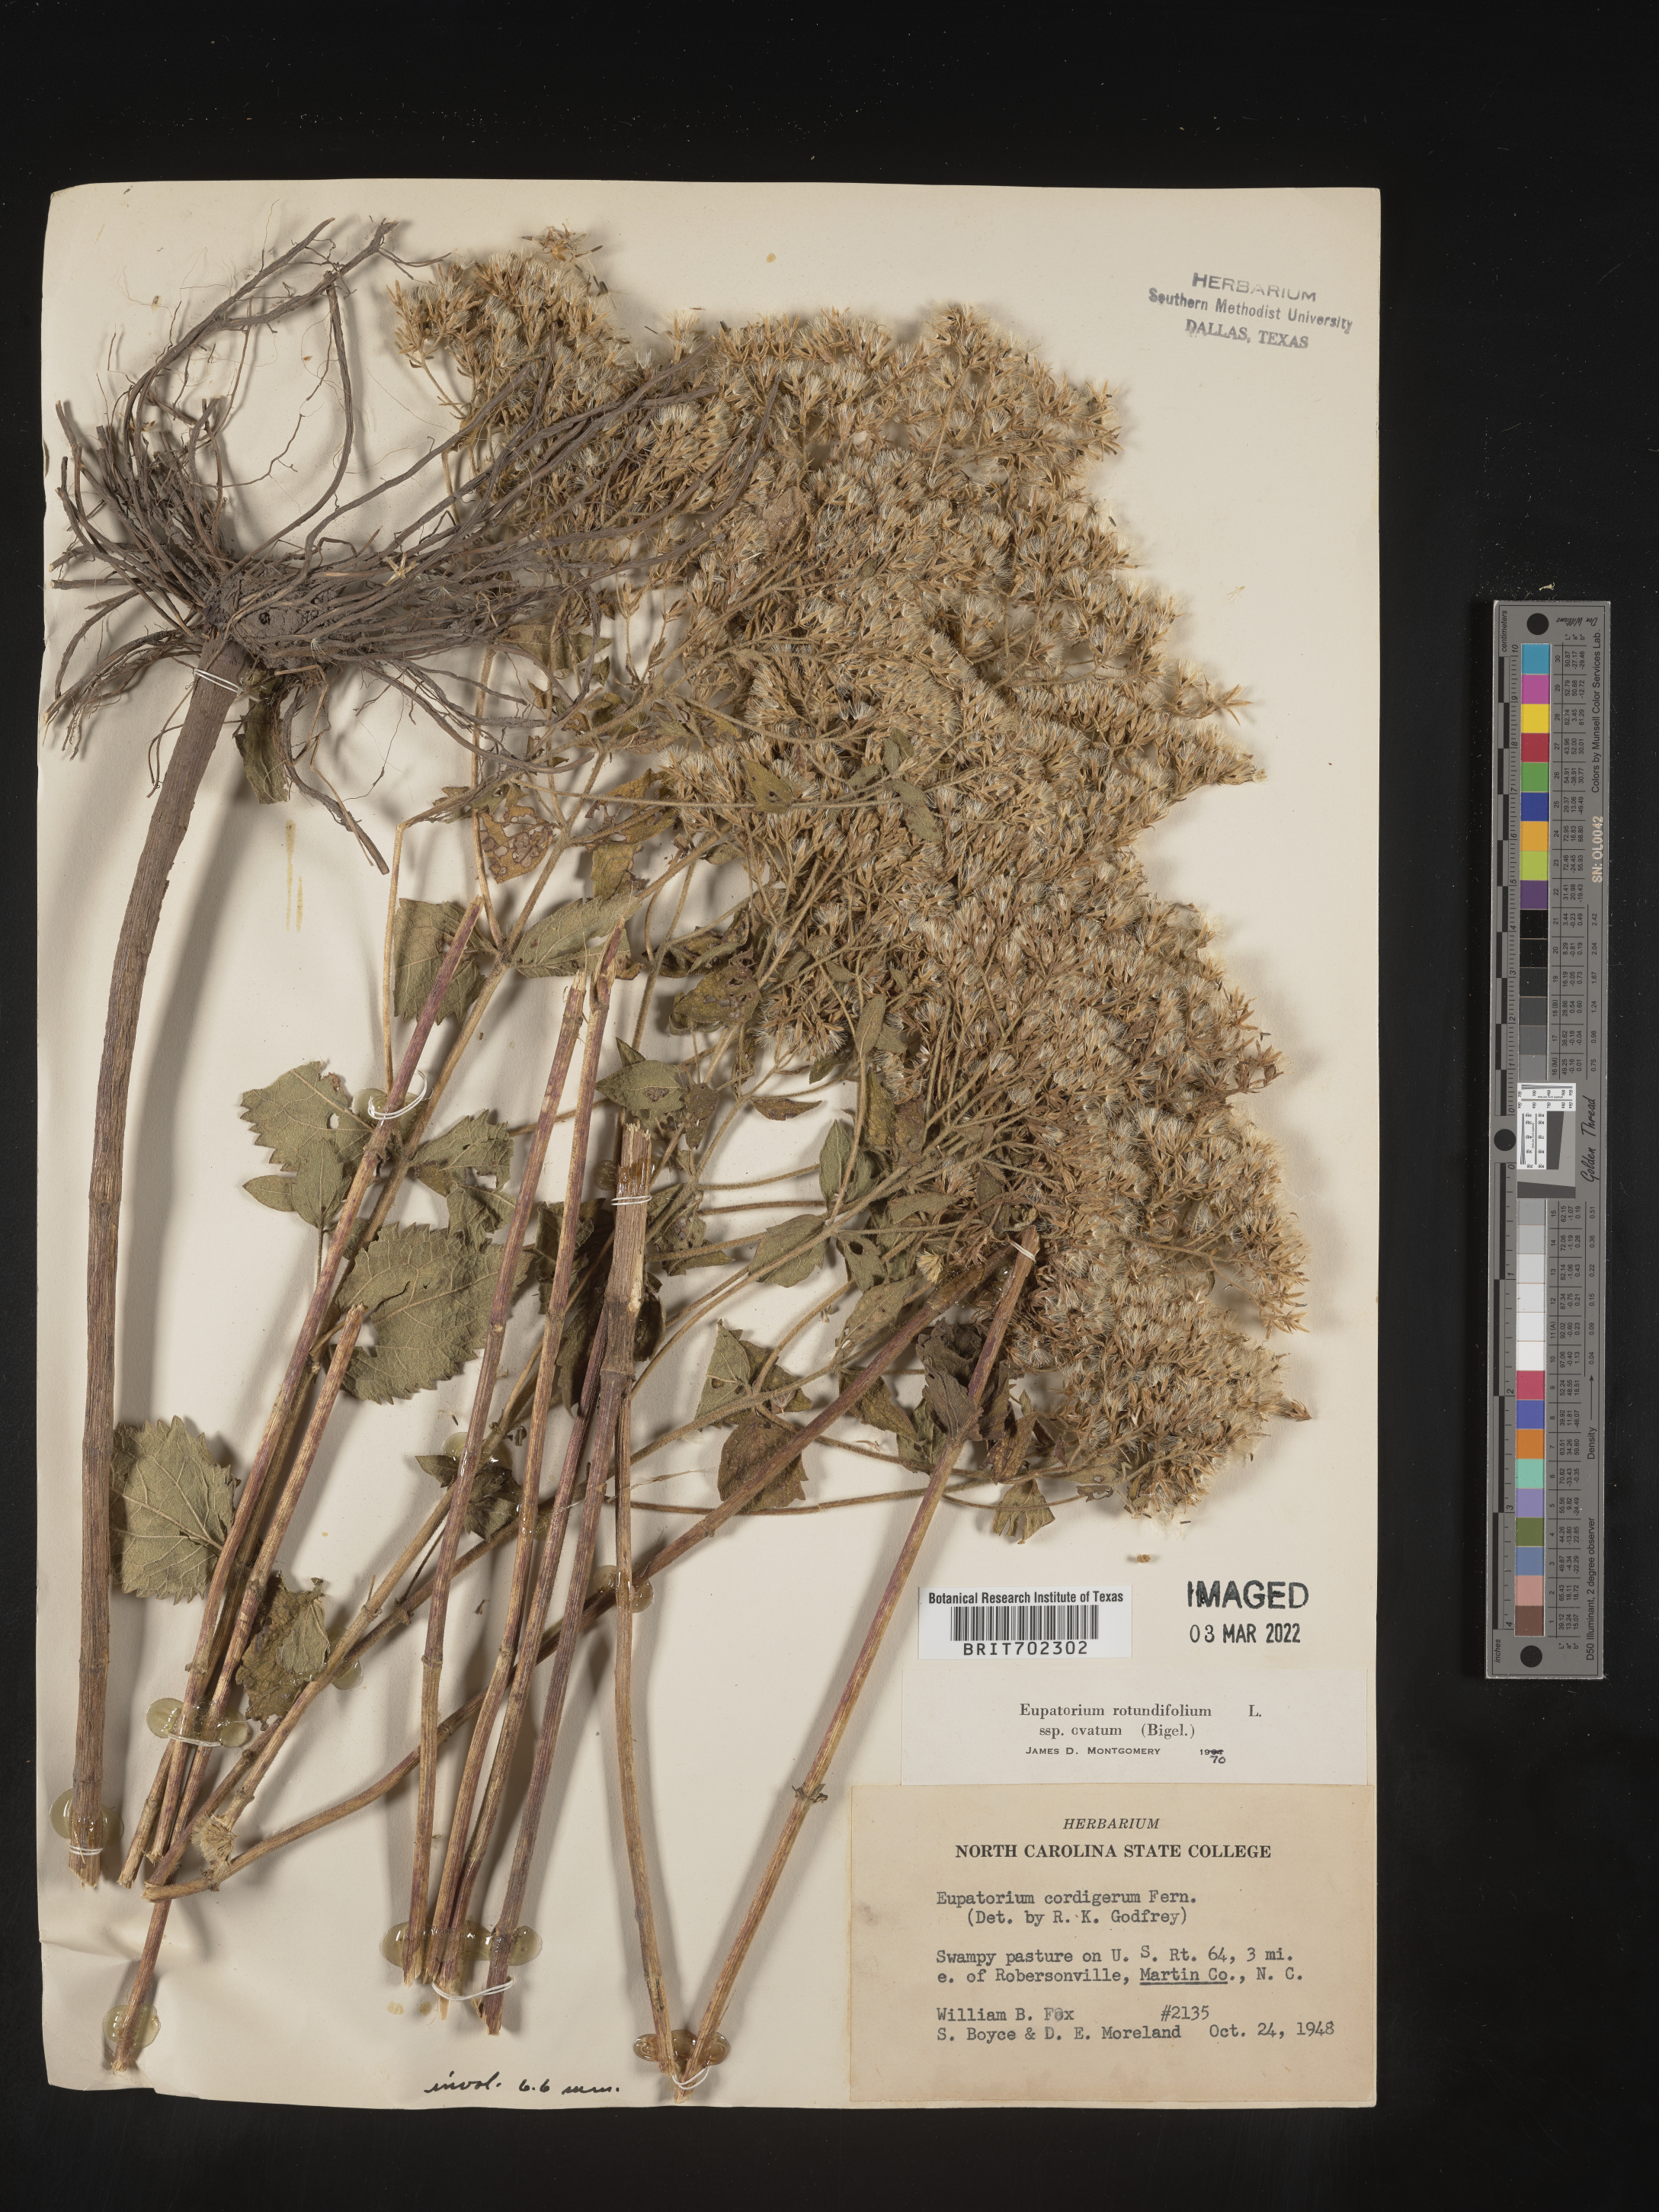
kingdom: Plantae
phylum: Tracheophyta
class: Magnoliopsida
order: Asterales
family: Asteraceae
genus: Eupatorium
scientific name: Eupatorium rotundifolium
